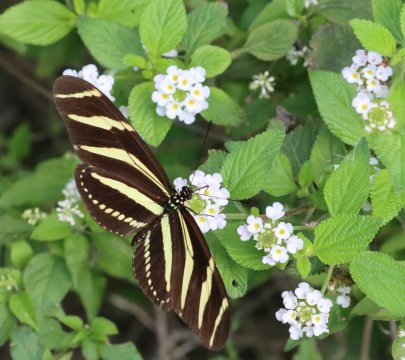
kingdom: Animalia
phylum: Arthropoda
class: Insecta
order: Lepidoptera
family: Nymphalidae
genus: Heliconius
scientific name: Heliconius charithonia
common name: Zebra Longwing
